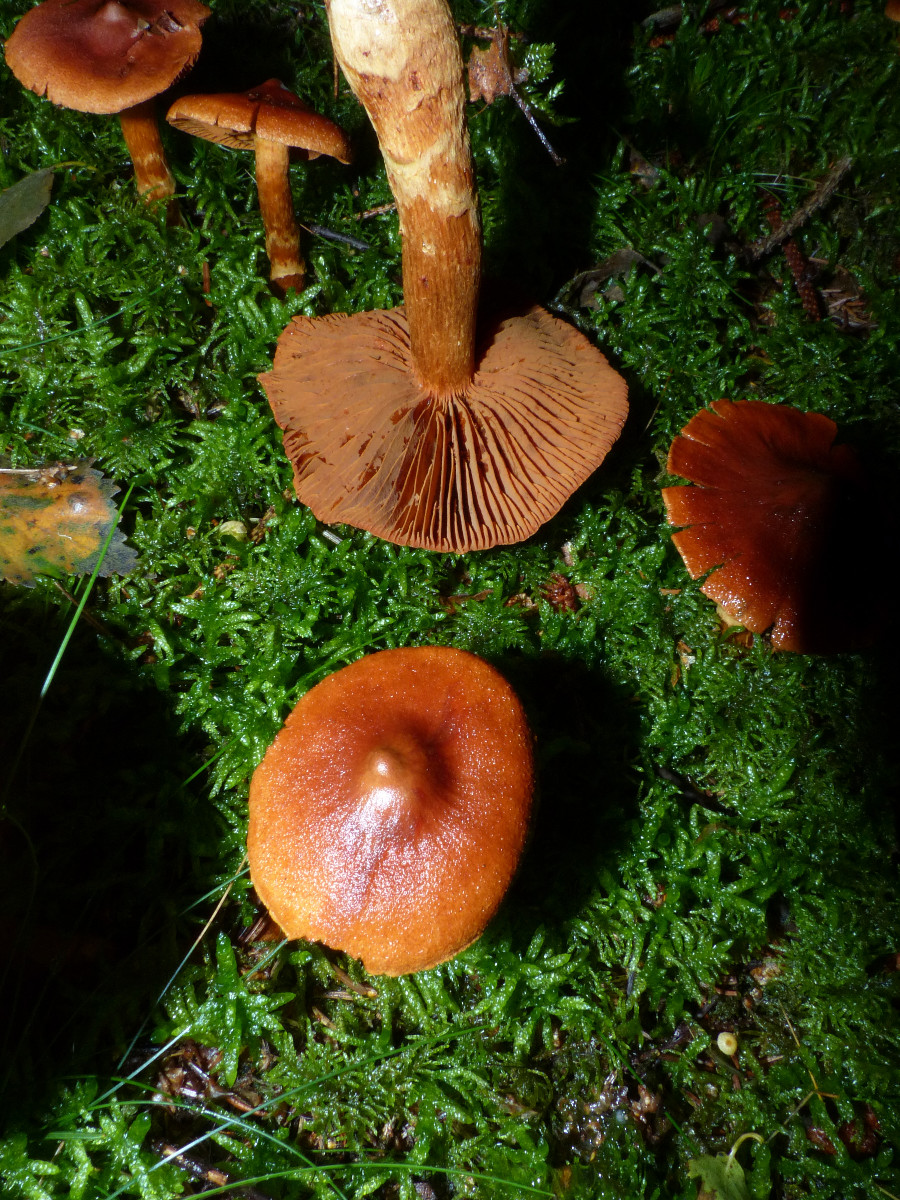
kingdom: Fungi
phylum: Basidiomycota
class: Agaricomycetes
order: Agaricales
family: Cortinariaceae
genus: Cortinarius
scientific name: Cortinarius rubellus
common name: puklet gift-slørhat
